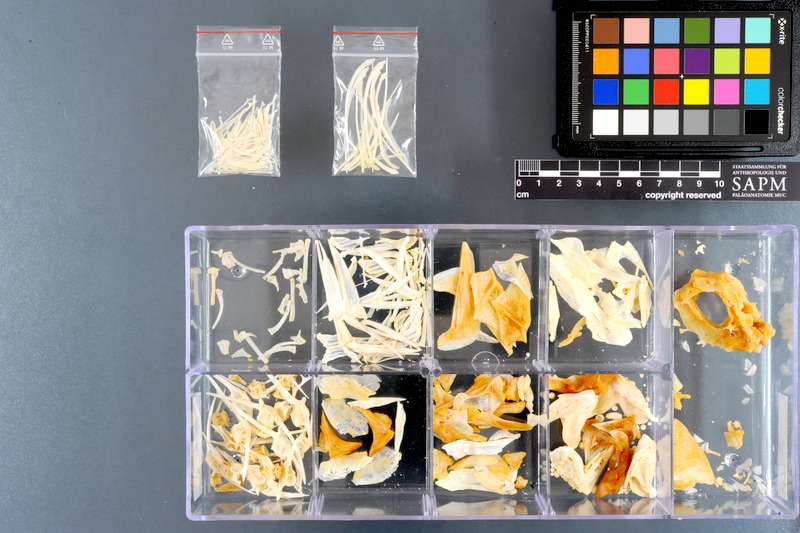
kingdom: Animalia
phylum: Chordata
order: Perciformes
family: Sparidae
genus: Acanthopagrus
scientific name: Acanthopagrus bifasciatus
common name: Twobar seabream
